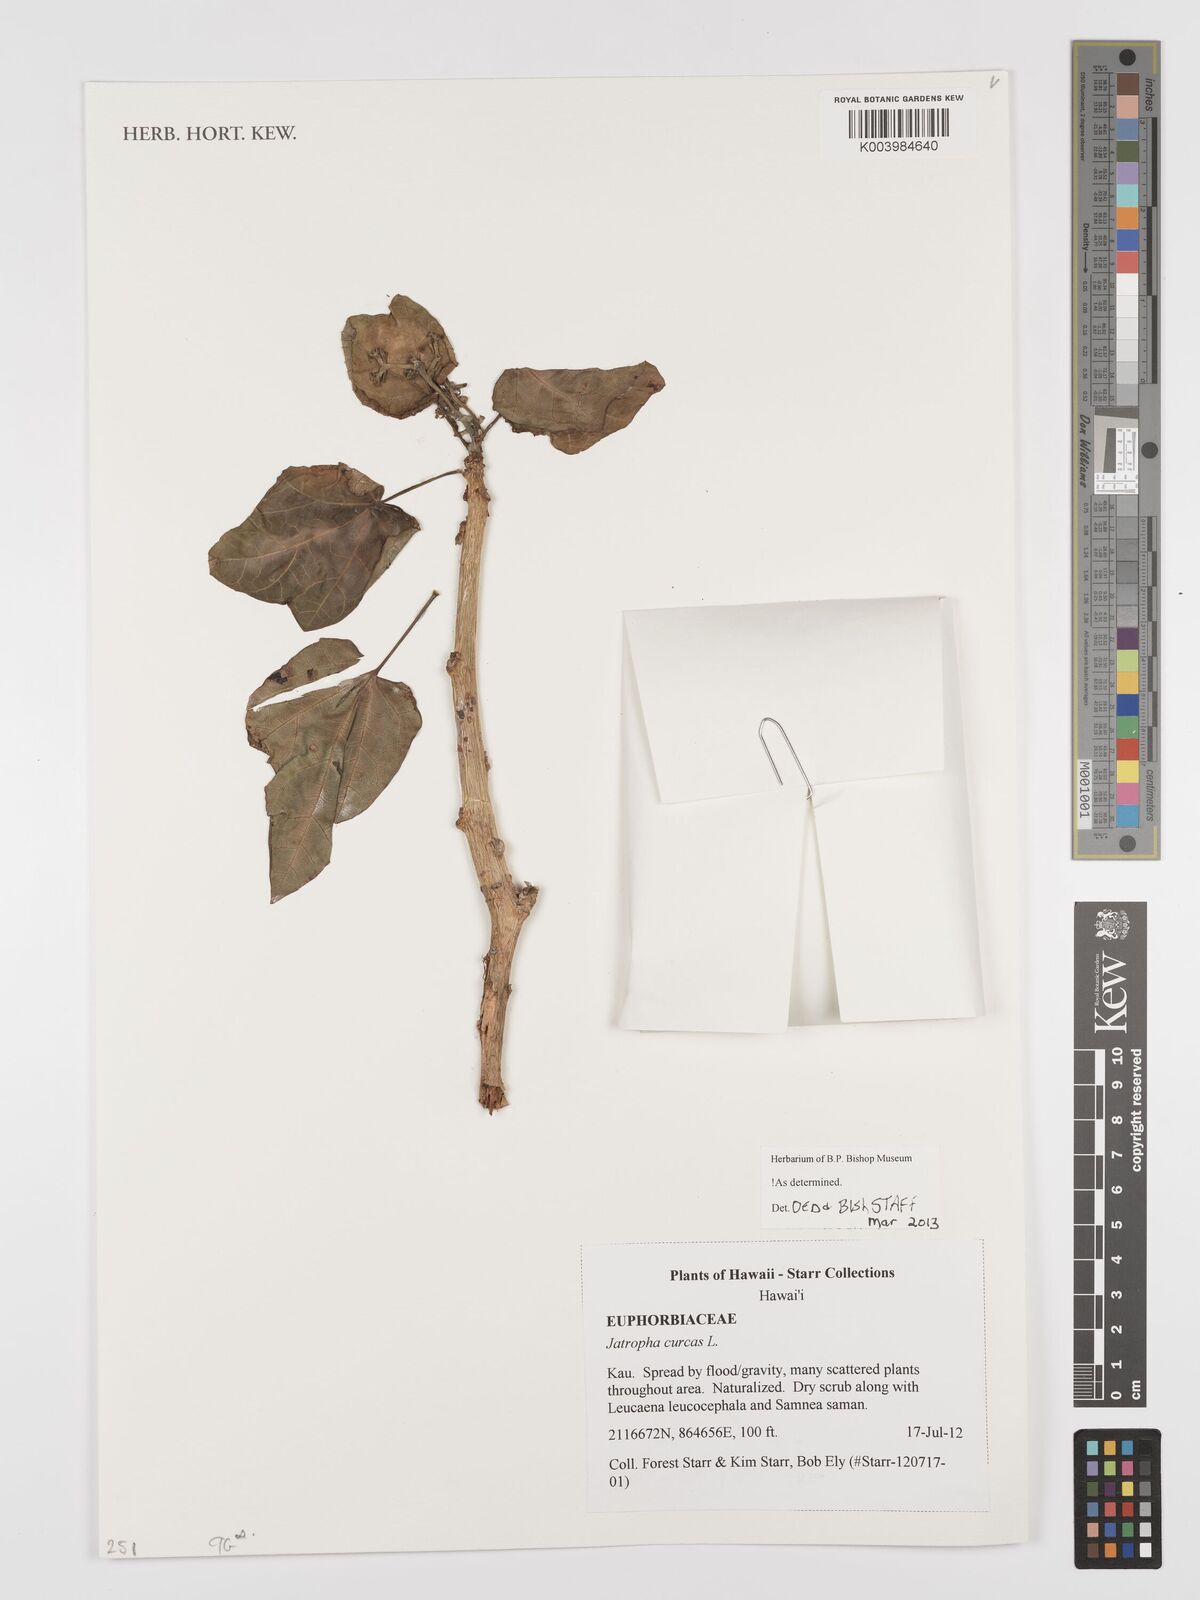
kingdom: Plantae
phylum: Tracheophyta
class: Magnoliopsida
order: Malpighiales
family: Euphorbiaceae
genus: Jatropha
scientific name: Jatropha curcas
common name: Barbados nut
